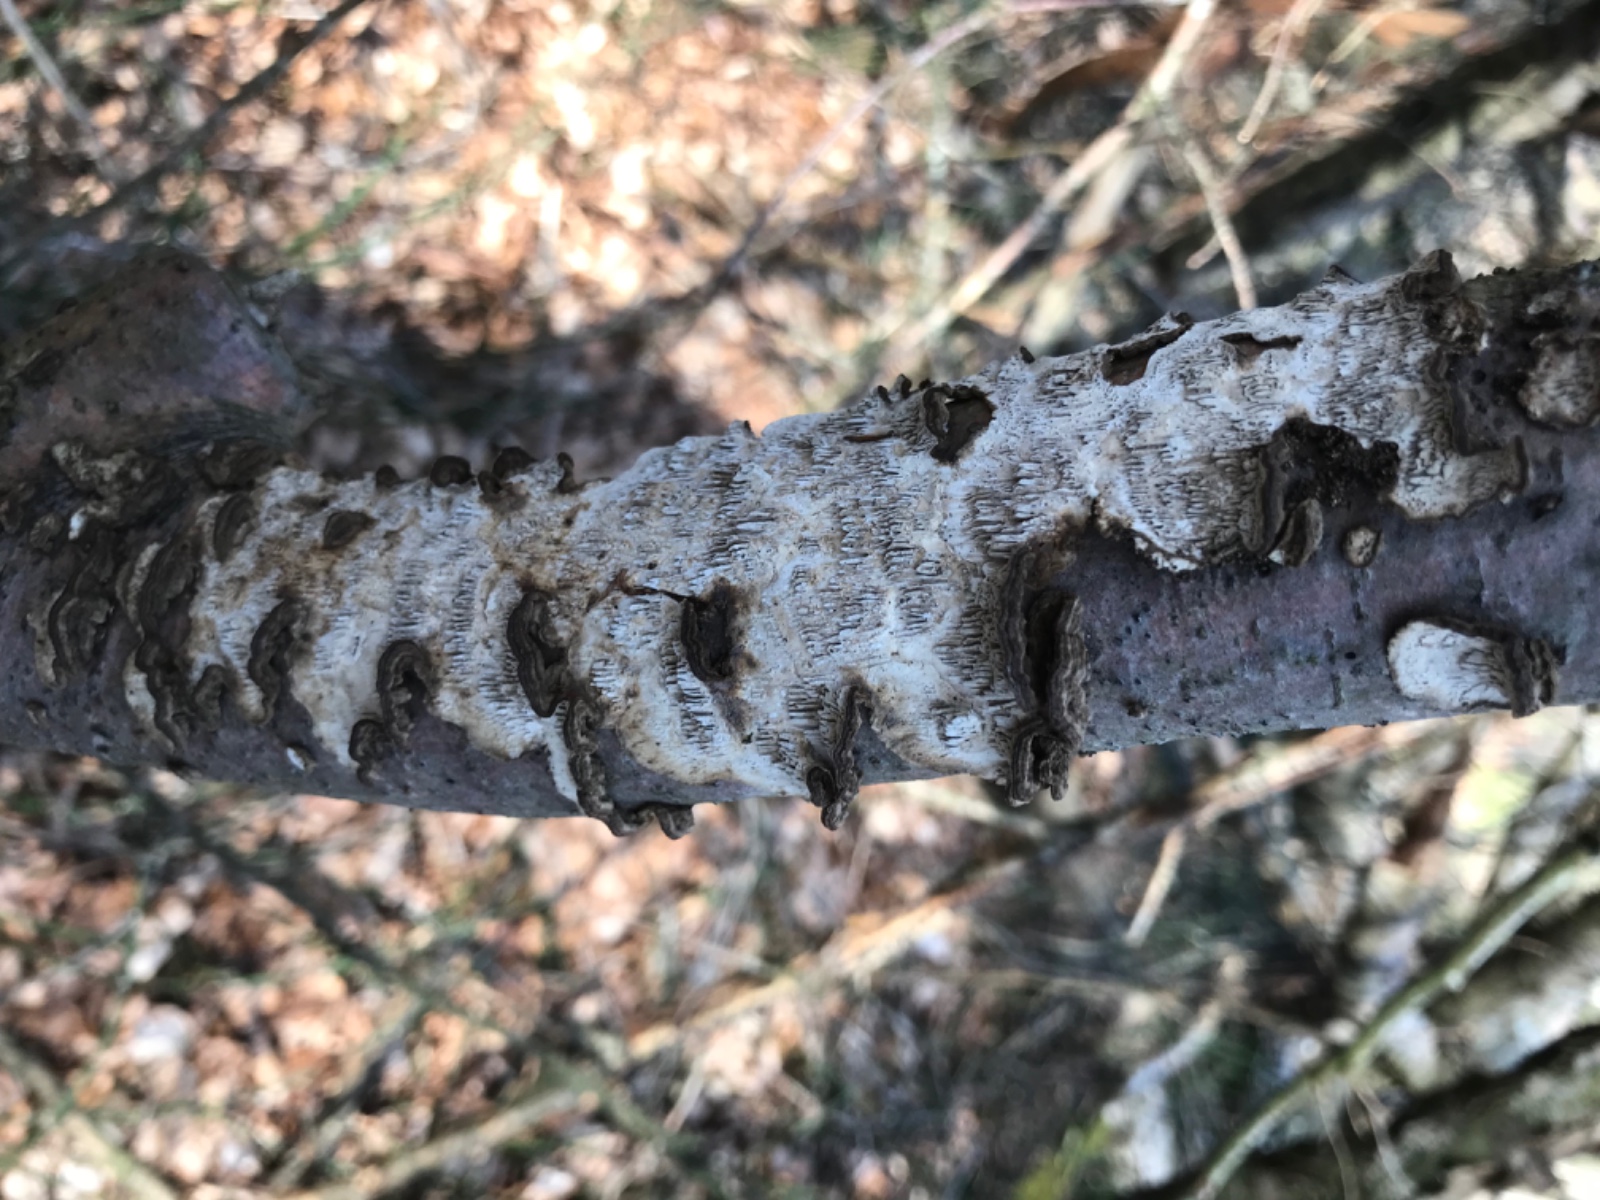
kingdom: Fungi
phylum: Basidiomycota
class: Agaricomycetes
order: Polyporales
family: Polyporaceae
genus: Podofomes
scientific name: Podofomes mollis
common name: blød begporesvamp
